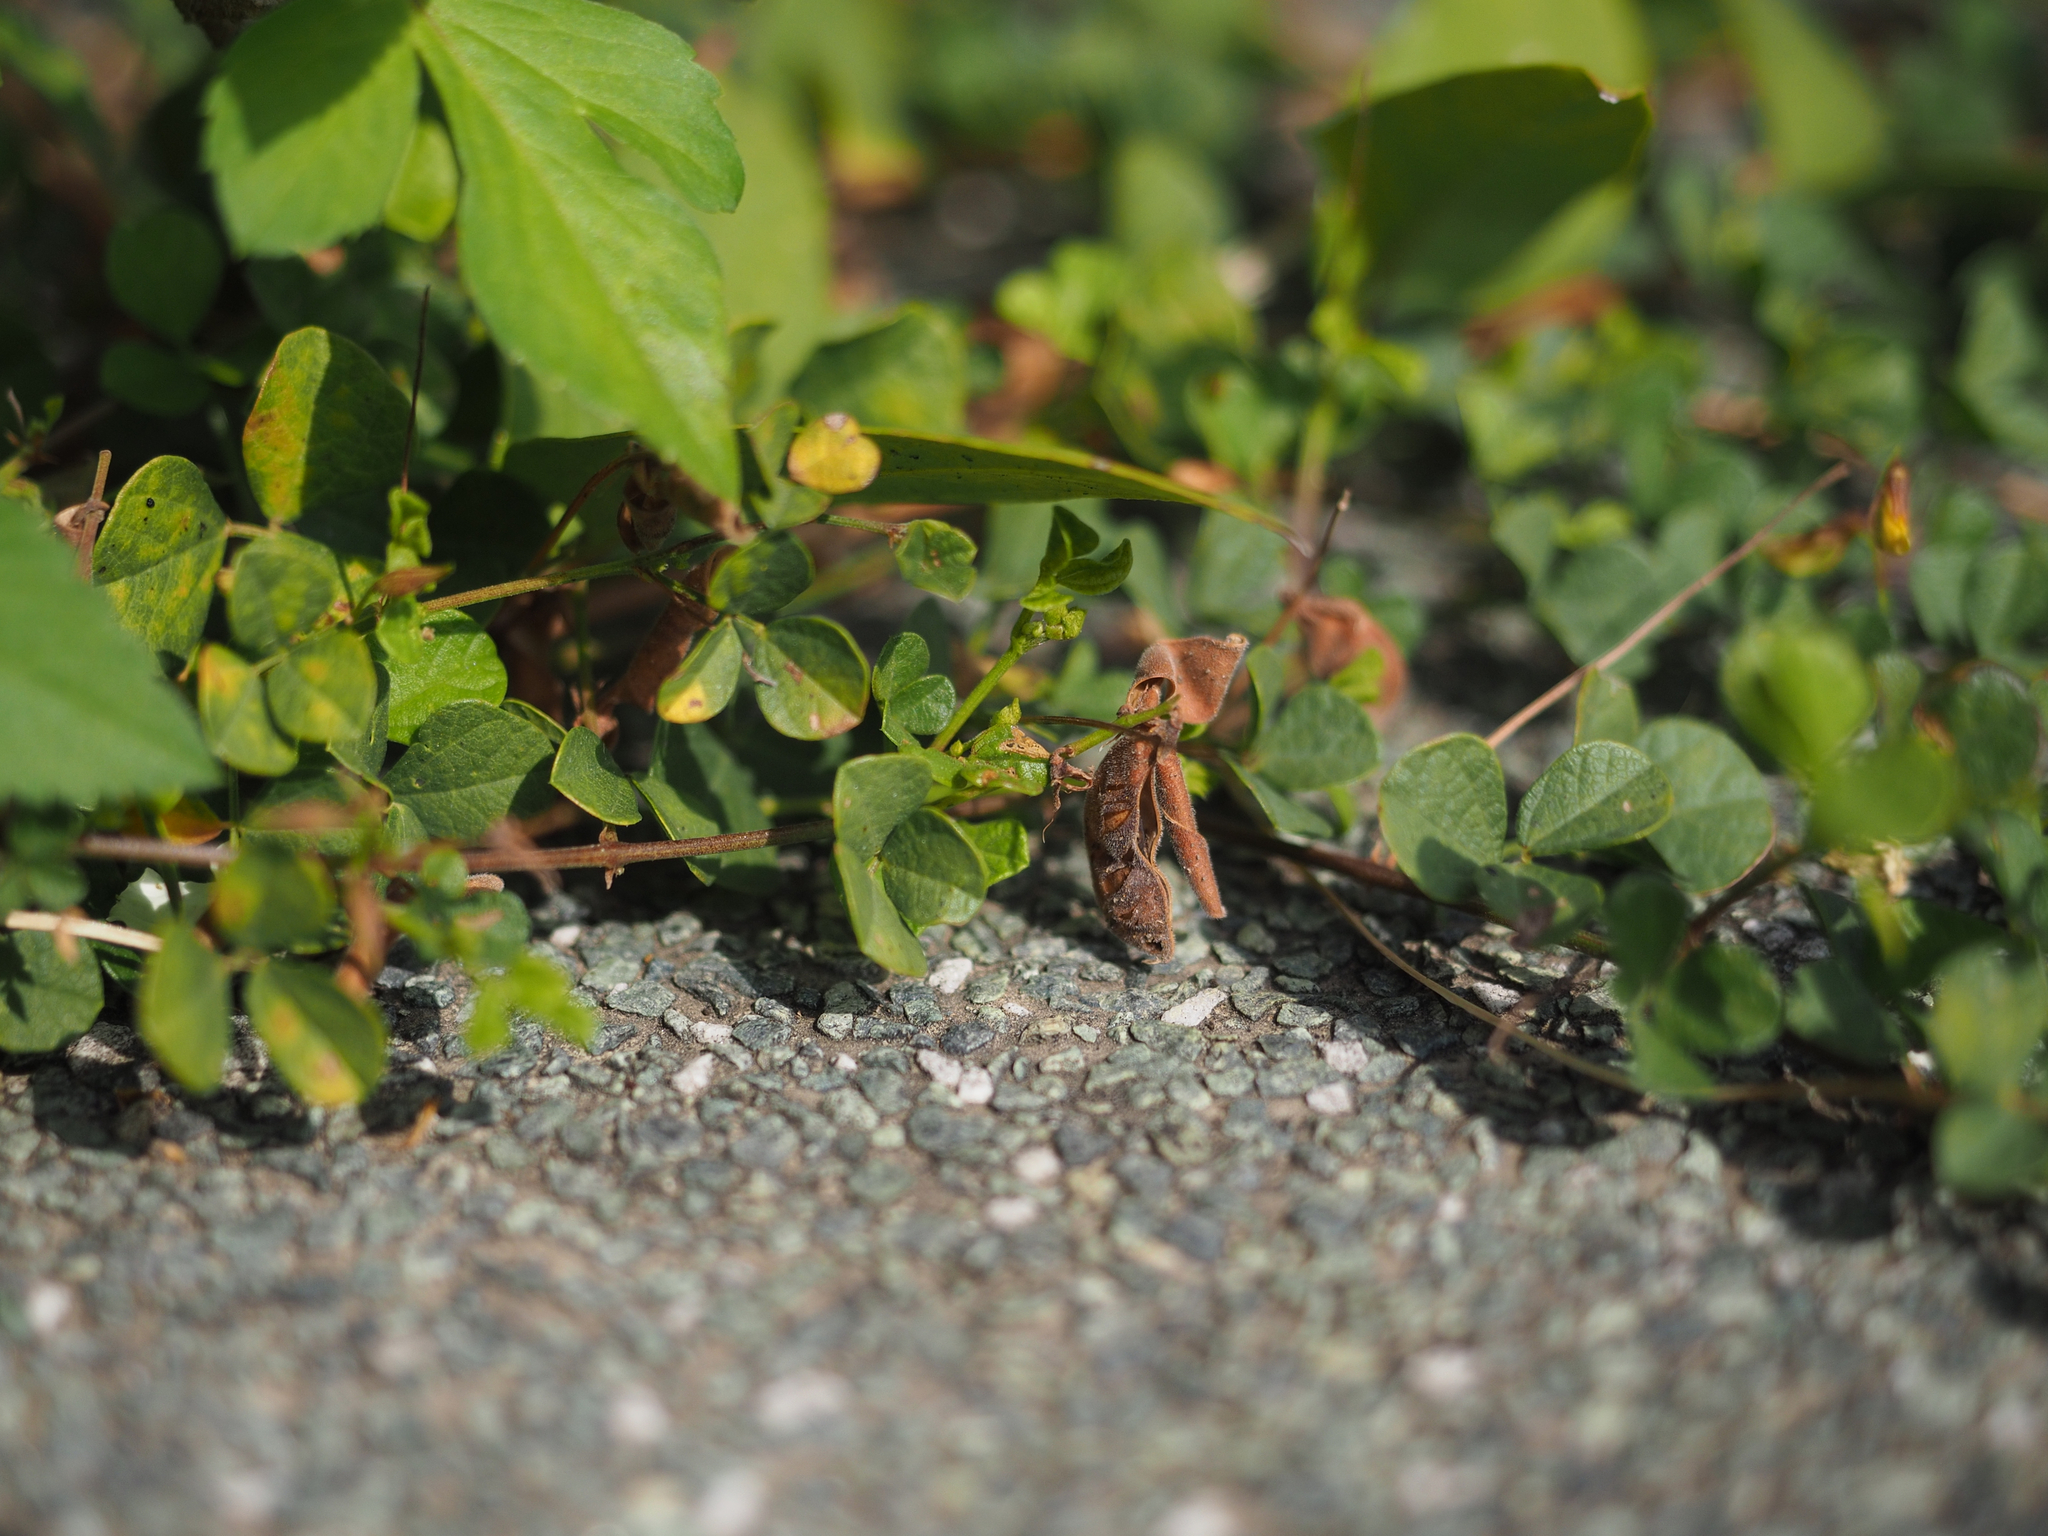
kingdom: Plantae
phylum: Tracheophyta
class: Magnoliopsida
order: Fabales
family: Fabaceae
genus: Rhynchosia
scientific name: Rhynchosia minima
